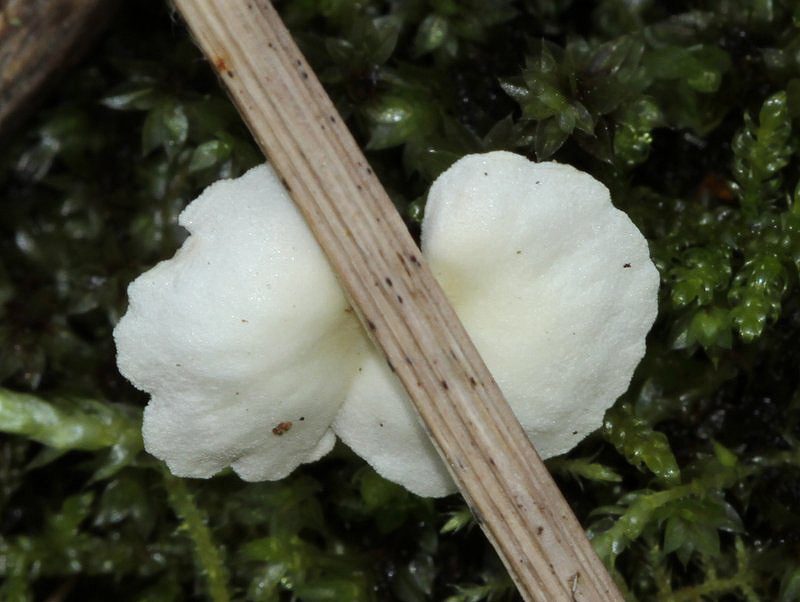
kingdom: Fungi
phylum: Basidiomycota
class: Agaricomycetes
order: Agaricales
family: Crepidotaceae
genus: Crepidotus
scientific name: Crepidotus luteolus
